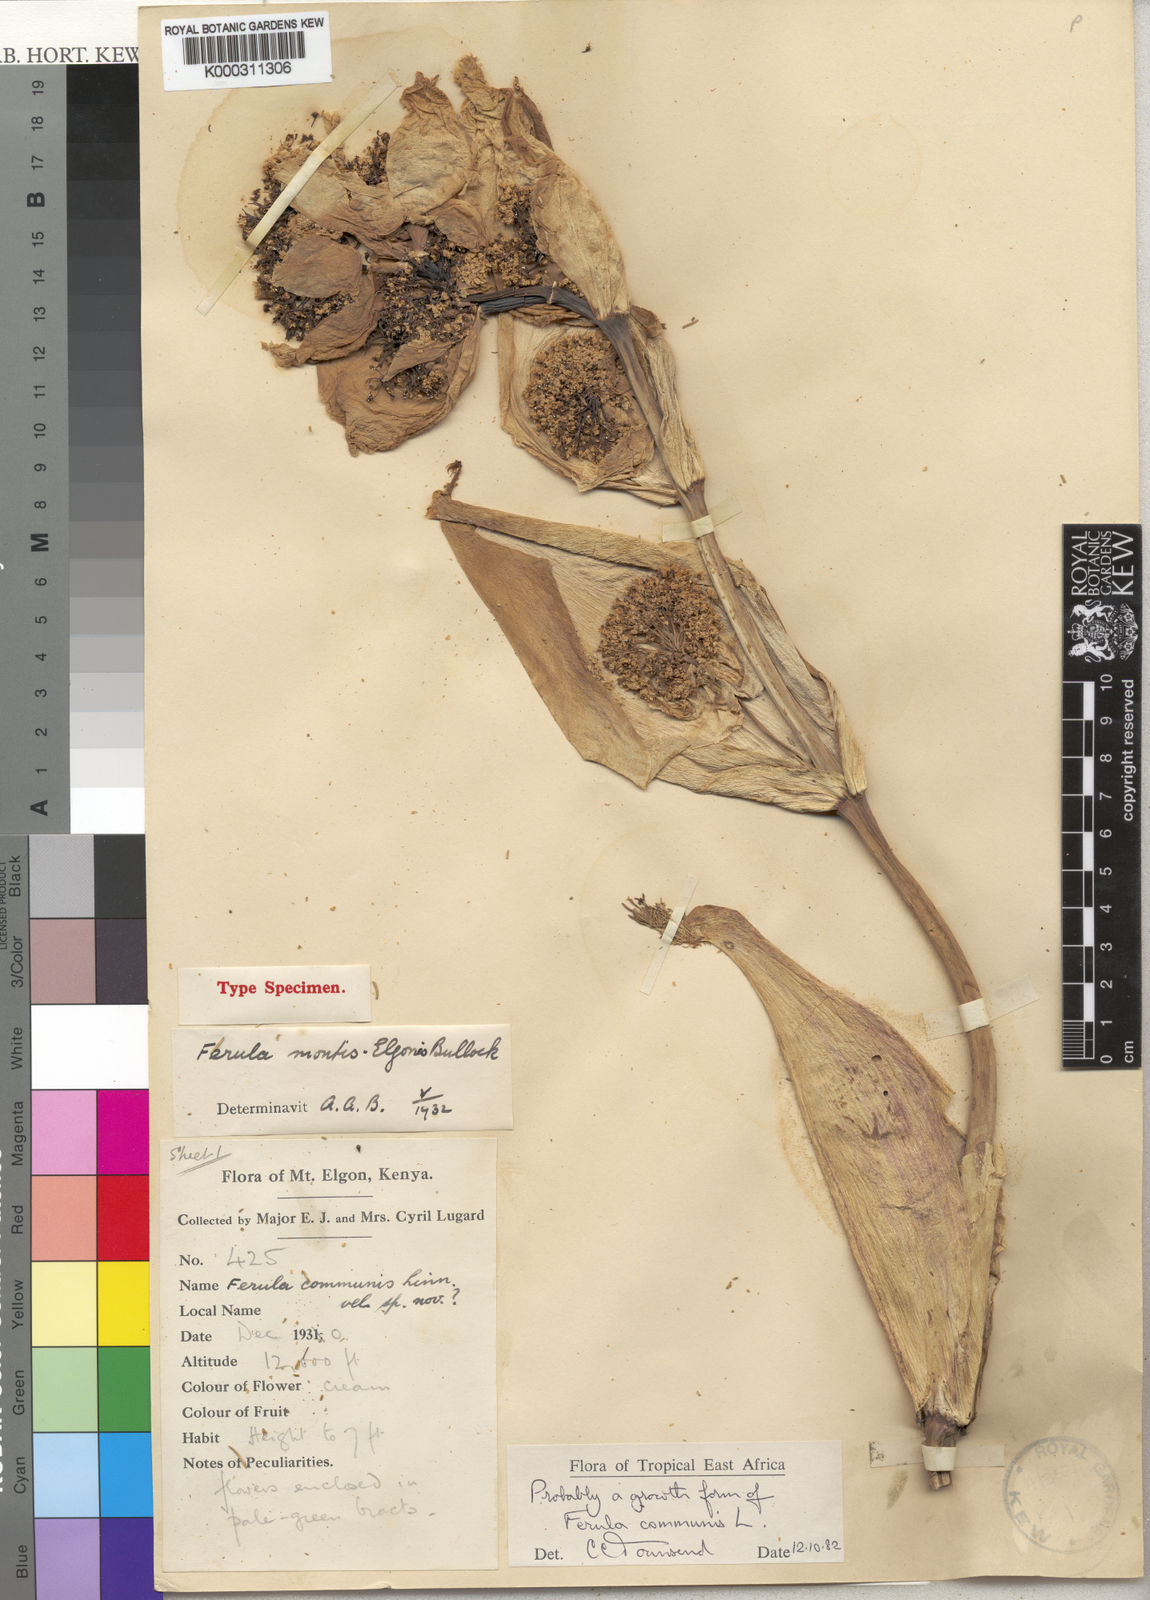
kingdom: Plantae
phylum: Tracheophyta
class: Magnoliopsida
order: Apiales
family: Apiaceae
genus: Ferula
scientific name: Ferula communis
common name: Giant fennel
